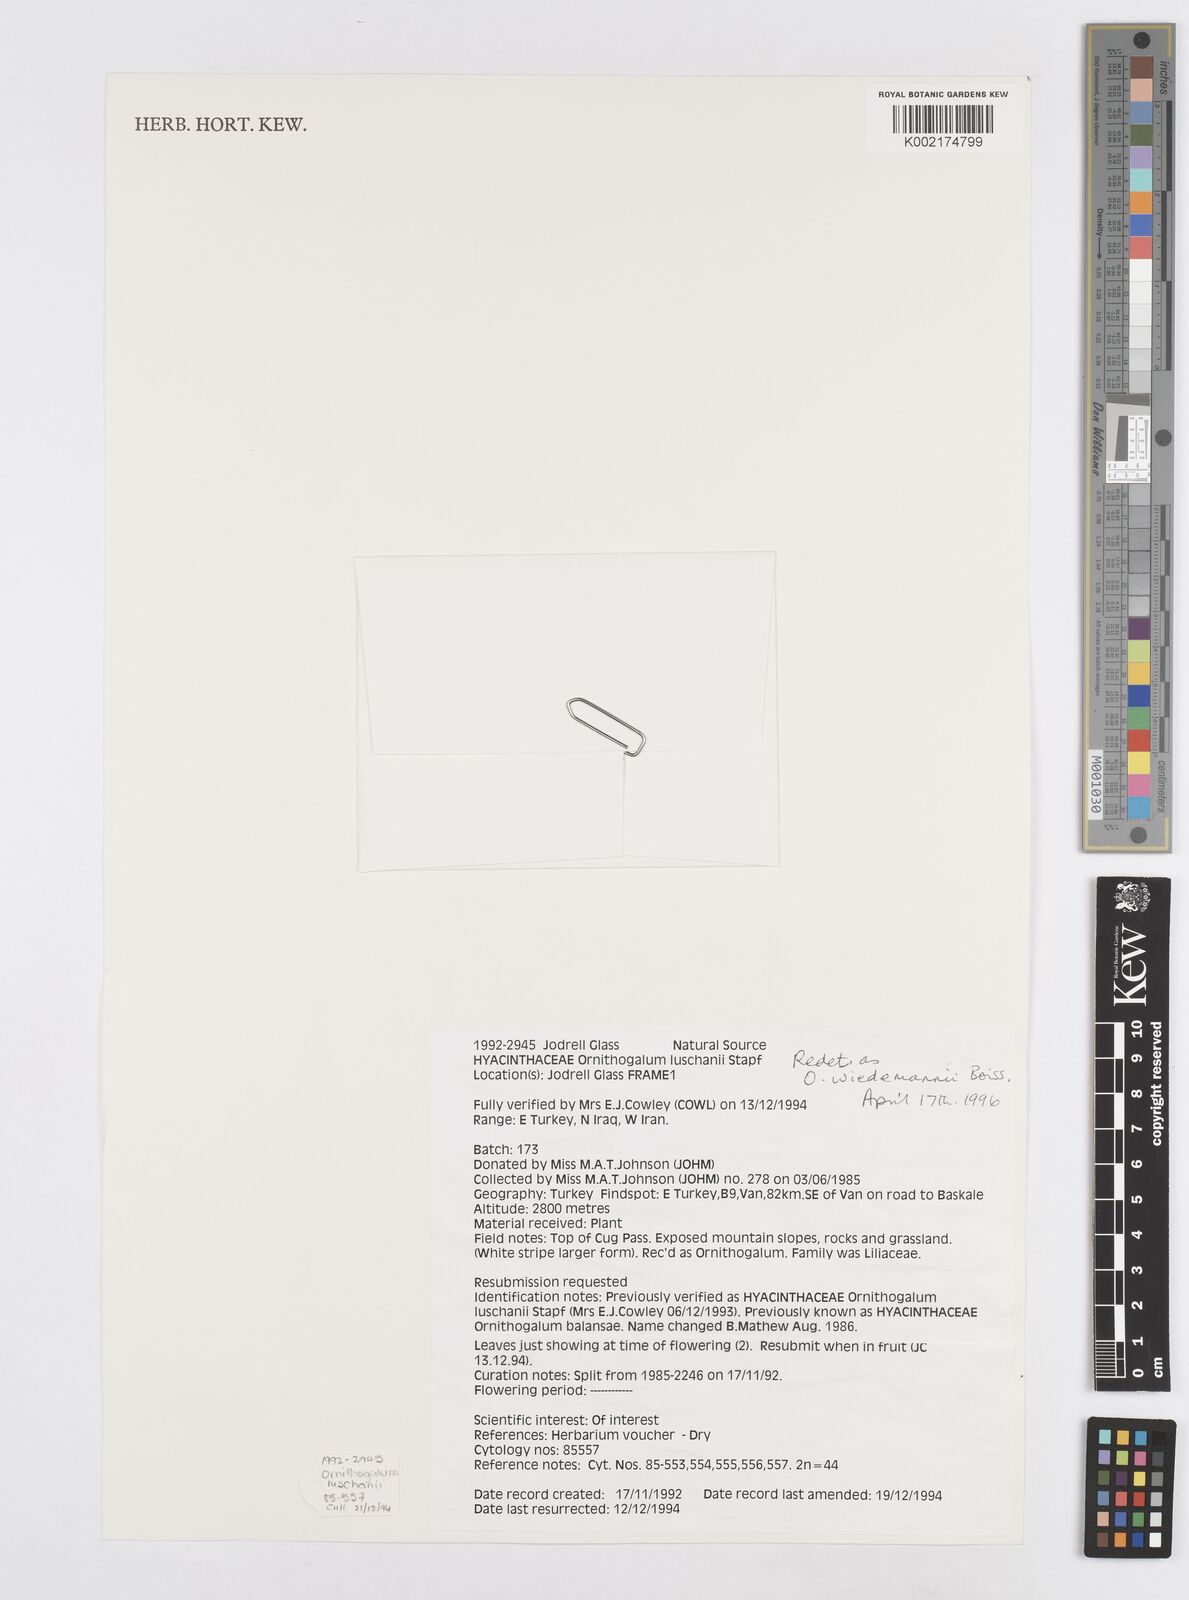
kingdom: Plantae
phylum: Tracheophyta
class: Liliopsida
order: Asparagales
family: Asparagaceae
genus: Ornithogalum
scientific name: Ornithogalum wiedemannii
